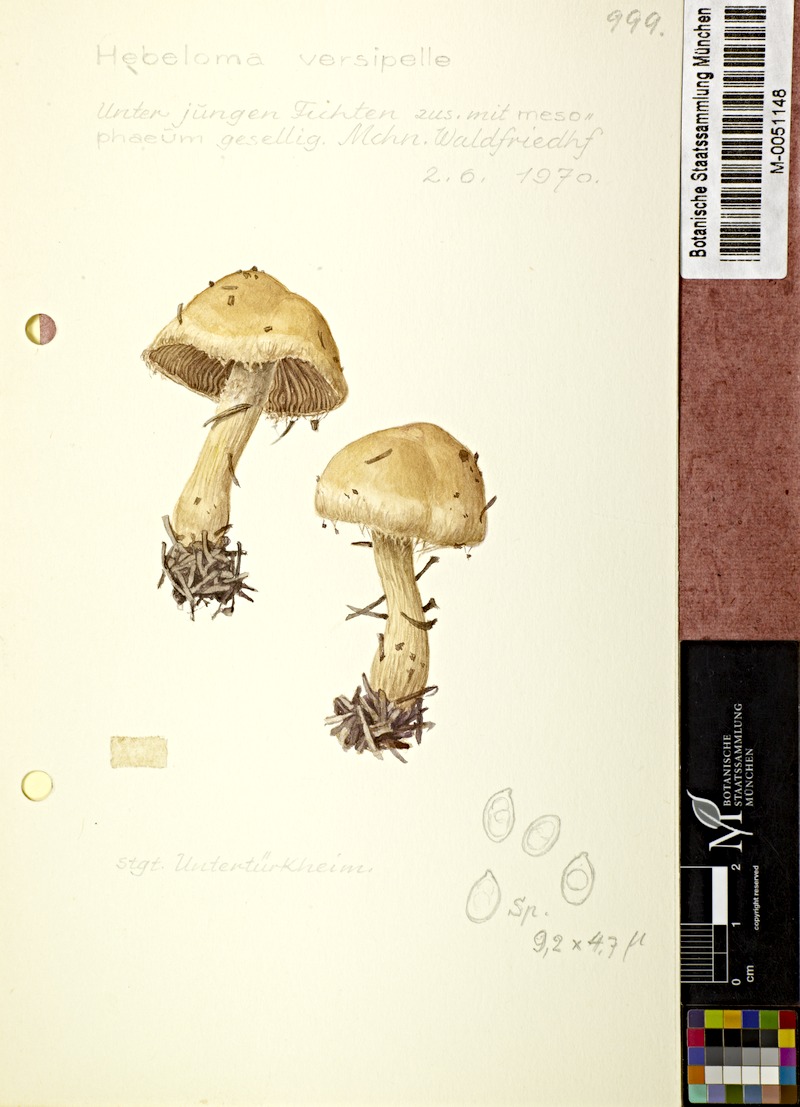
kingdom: Fungi
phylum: Basidiomycota
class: Agaricomycetes
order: Agaricales
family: Hymenogastraceae
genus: Hebeloma
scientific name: Hebeloma versipelle
